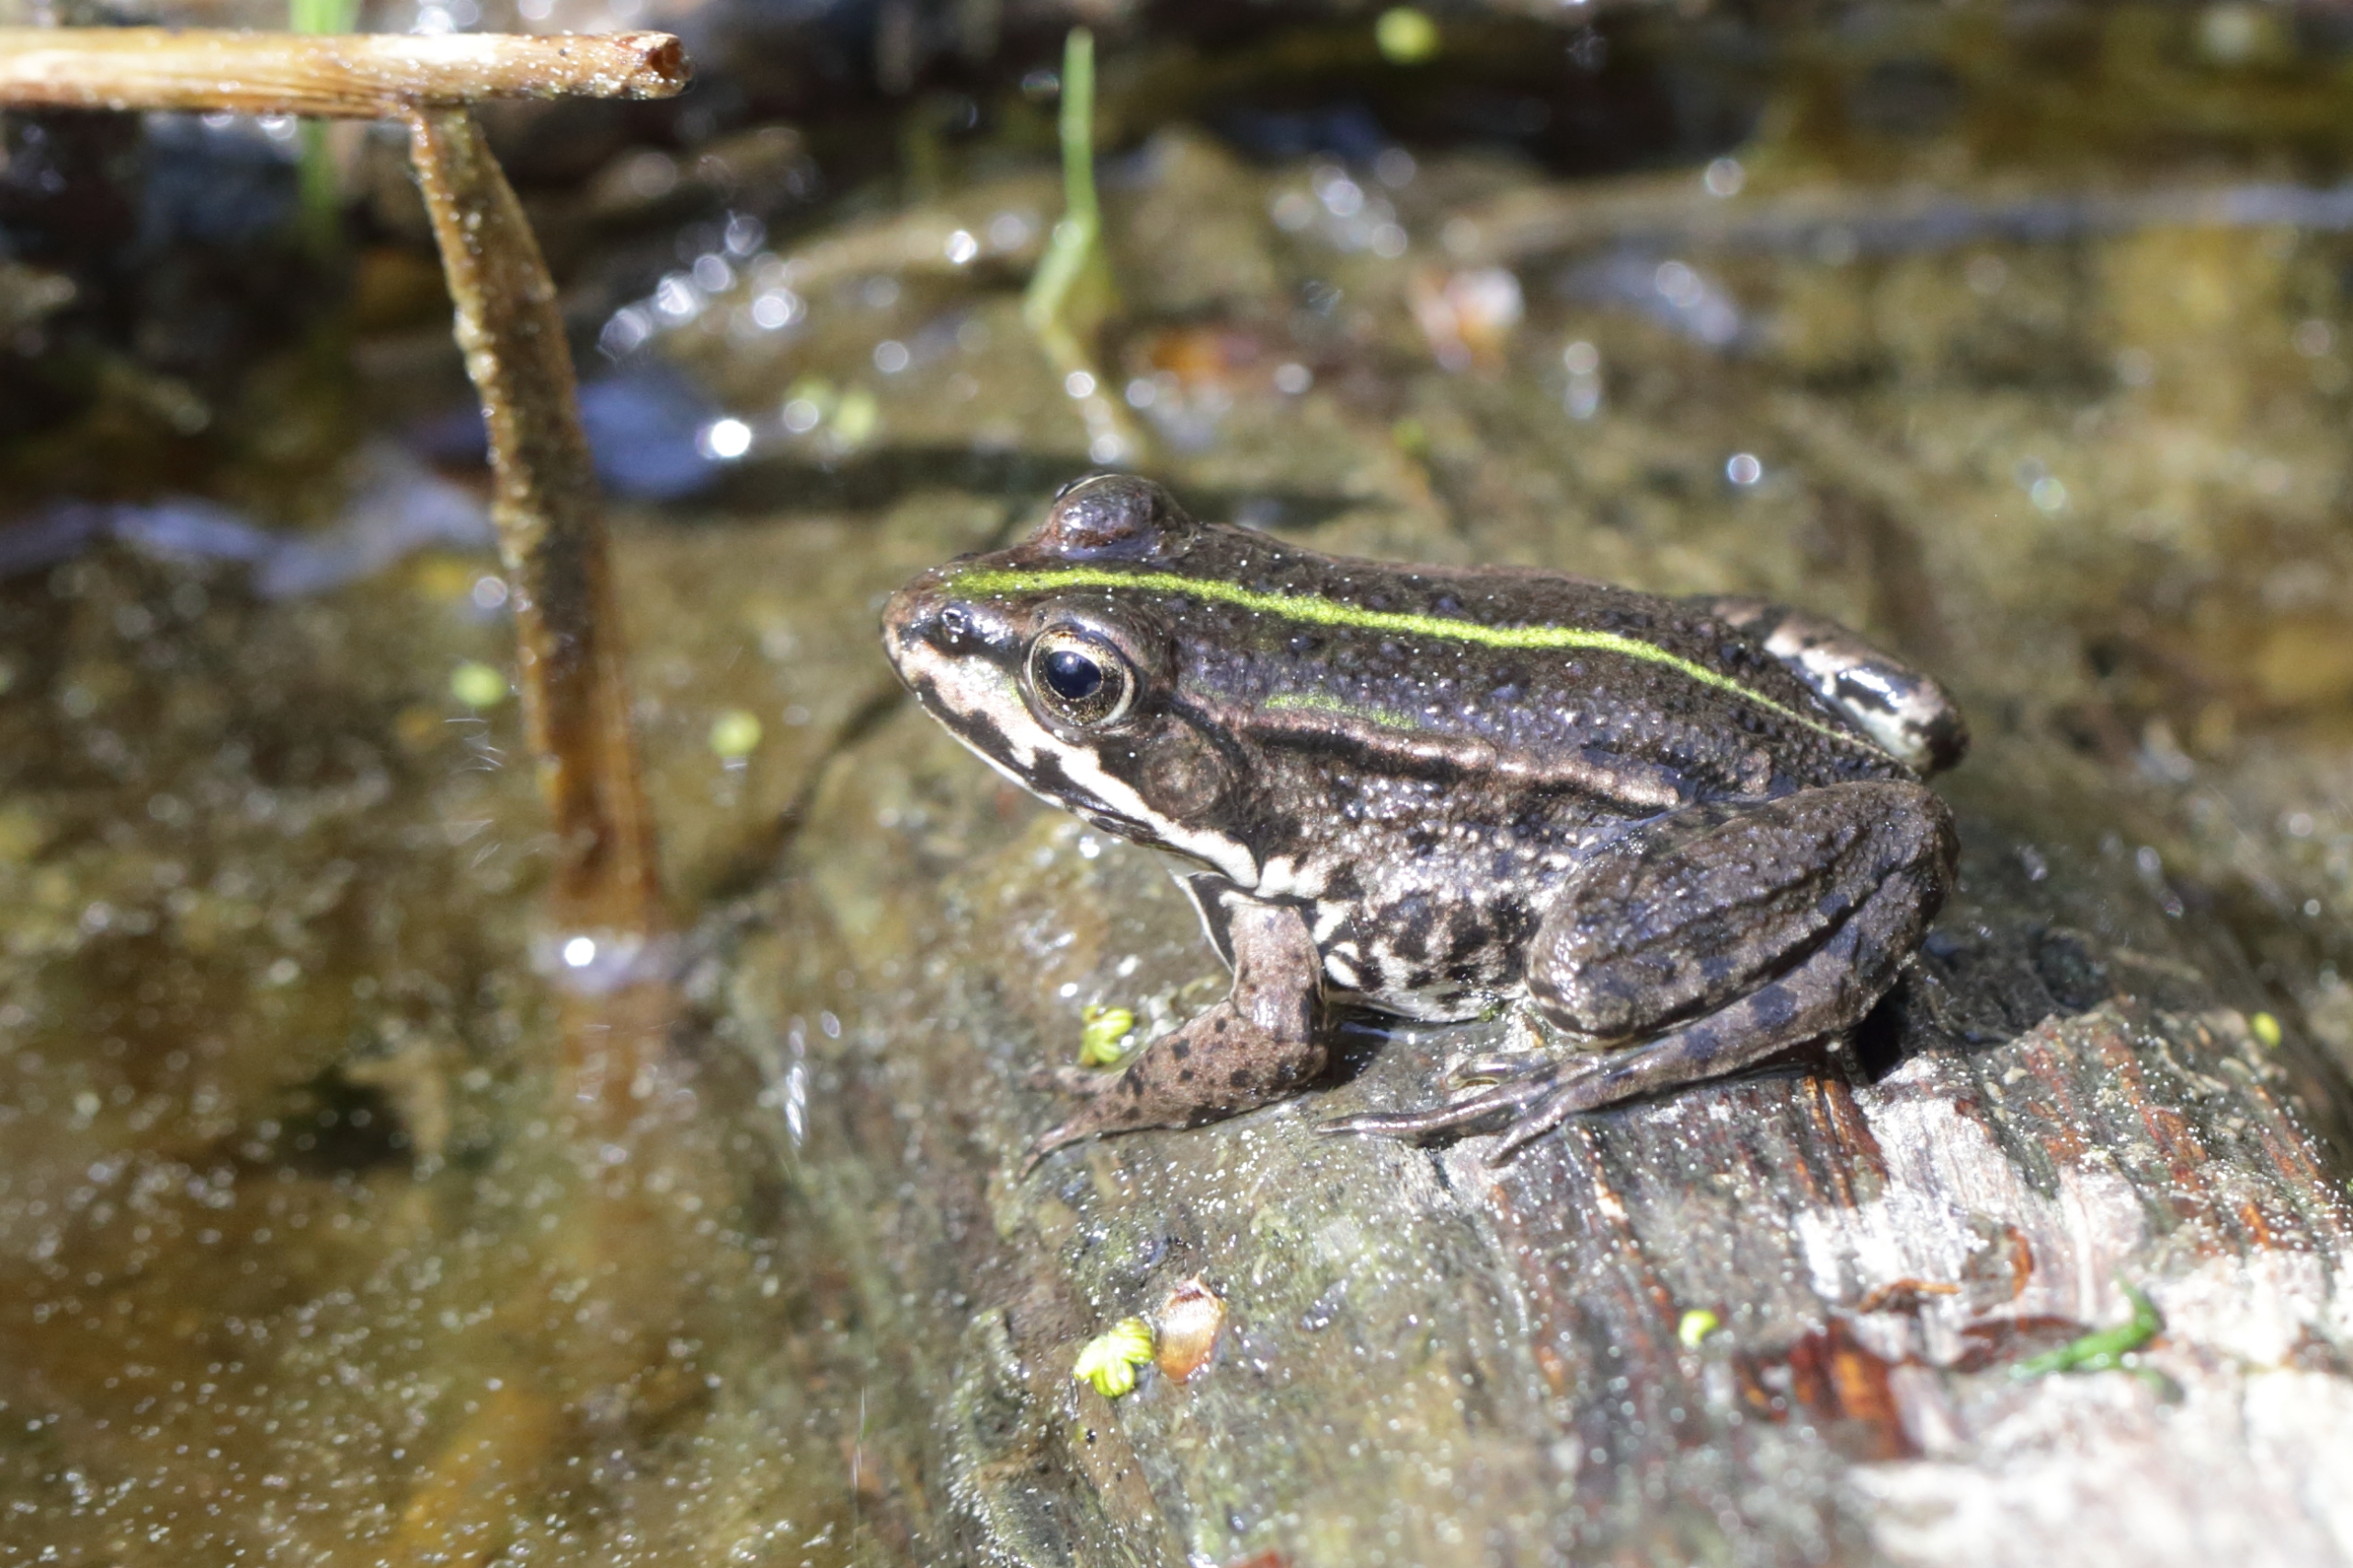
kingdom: Animalia
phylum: Chordata
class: Amphibia
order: Anura
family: Ranidae
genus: Pelophylax
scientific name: Pelophylax
